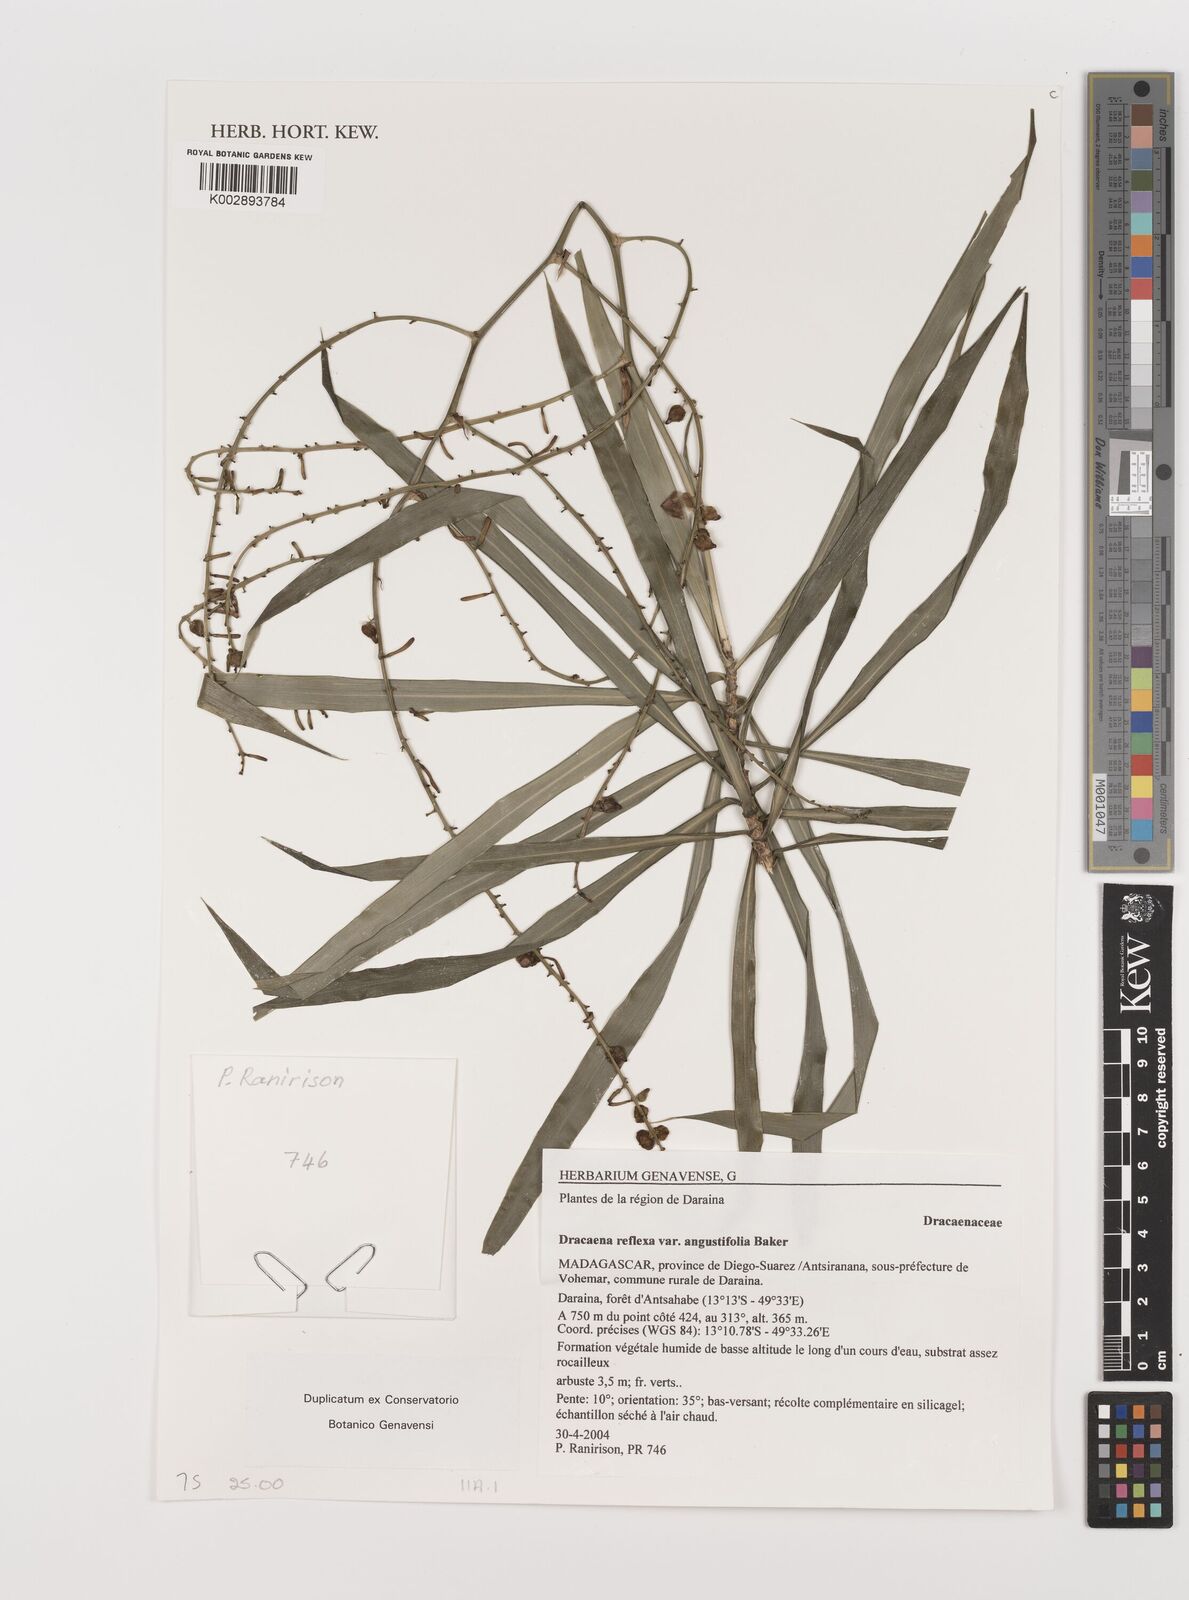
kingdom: Plantae
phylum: Tracheophyta
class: Liliopsida
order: Asparagales
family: Asparagaceae
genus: Dracaena
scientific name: Dracaena reflexa
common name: Song-of-india
